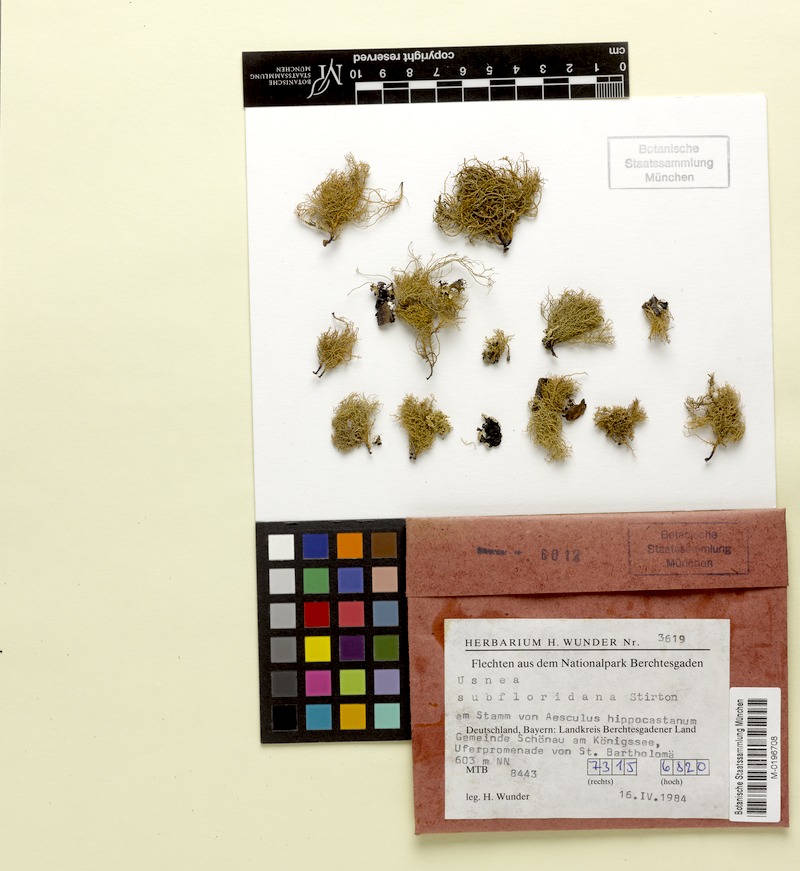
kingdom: Fungi
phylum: Ascomycota
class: Lecanoromycetes
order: Lecanorales
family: Parmeliaceae
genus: Usnea
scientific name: Usnea subfloridana
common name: Boreal beard lichen
